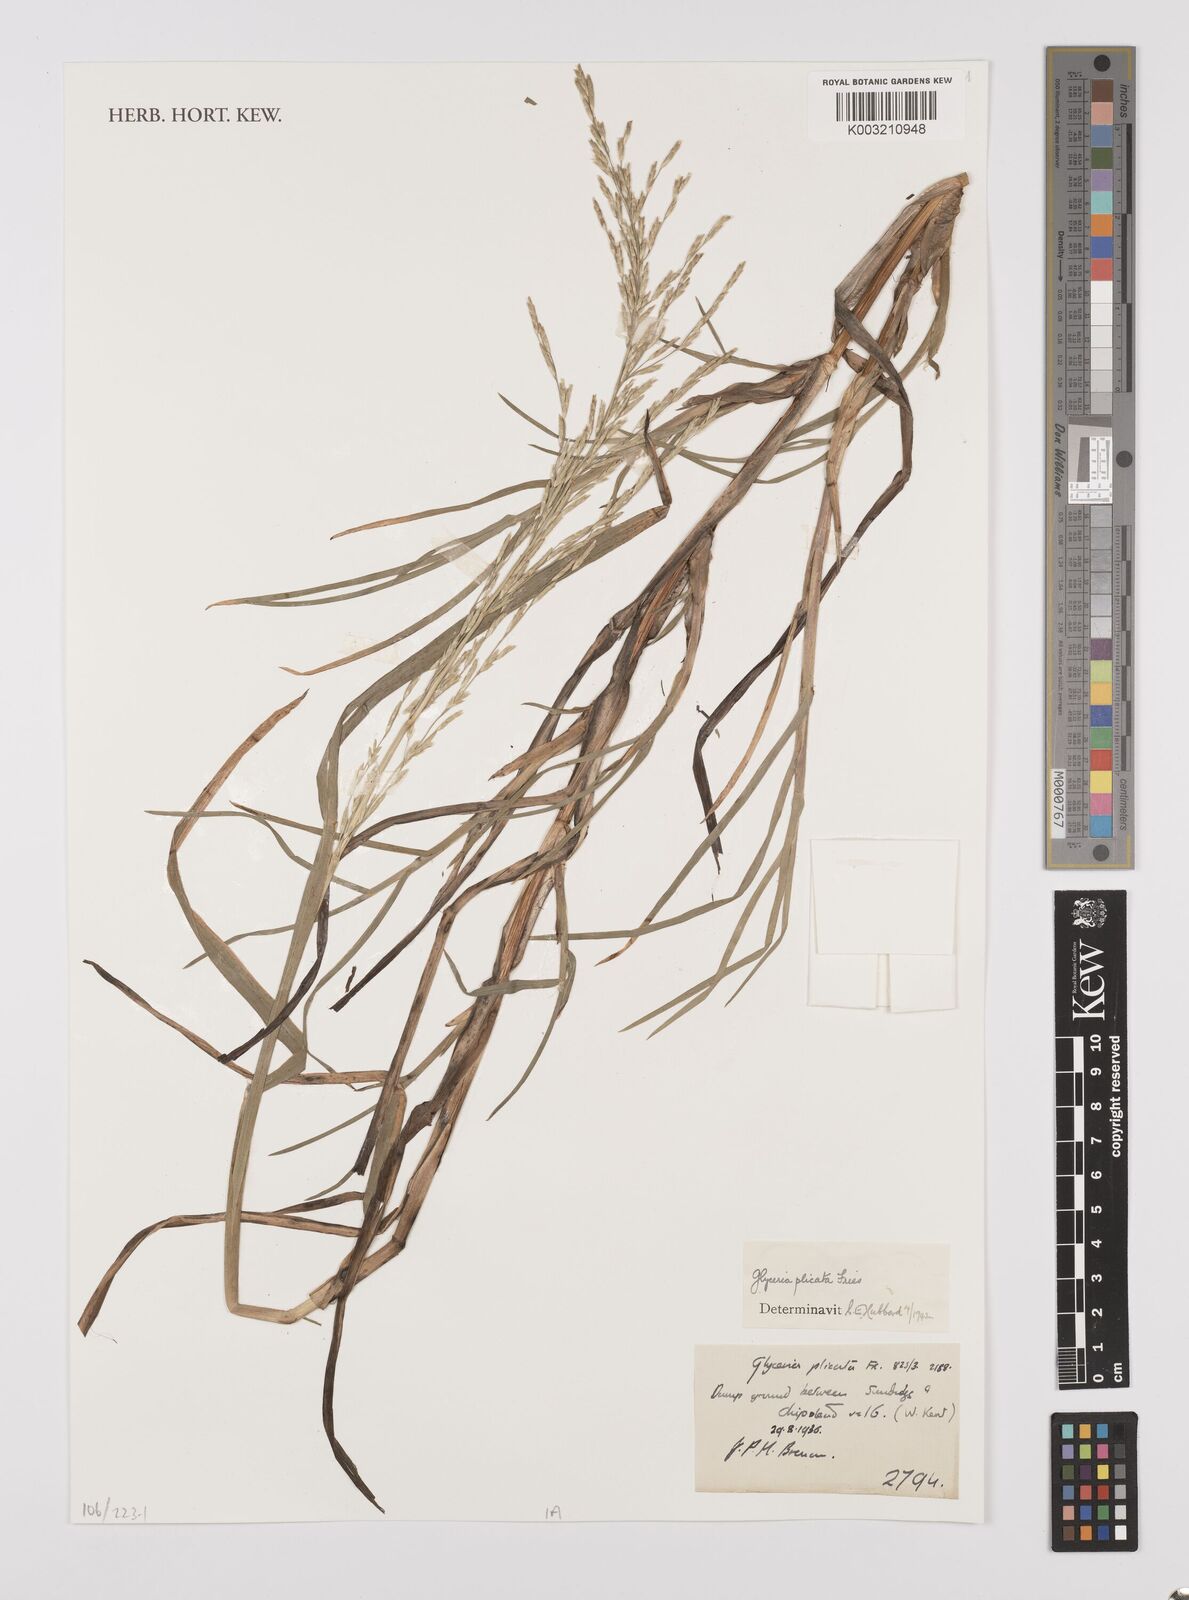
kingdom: Plantae
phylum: Tracheophyta
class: Liliopsida
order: Poales
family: Poaceae
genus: Glyceria
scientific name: Glyceria notata
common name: Plicate sweet-grass
